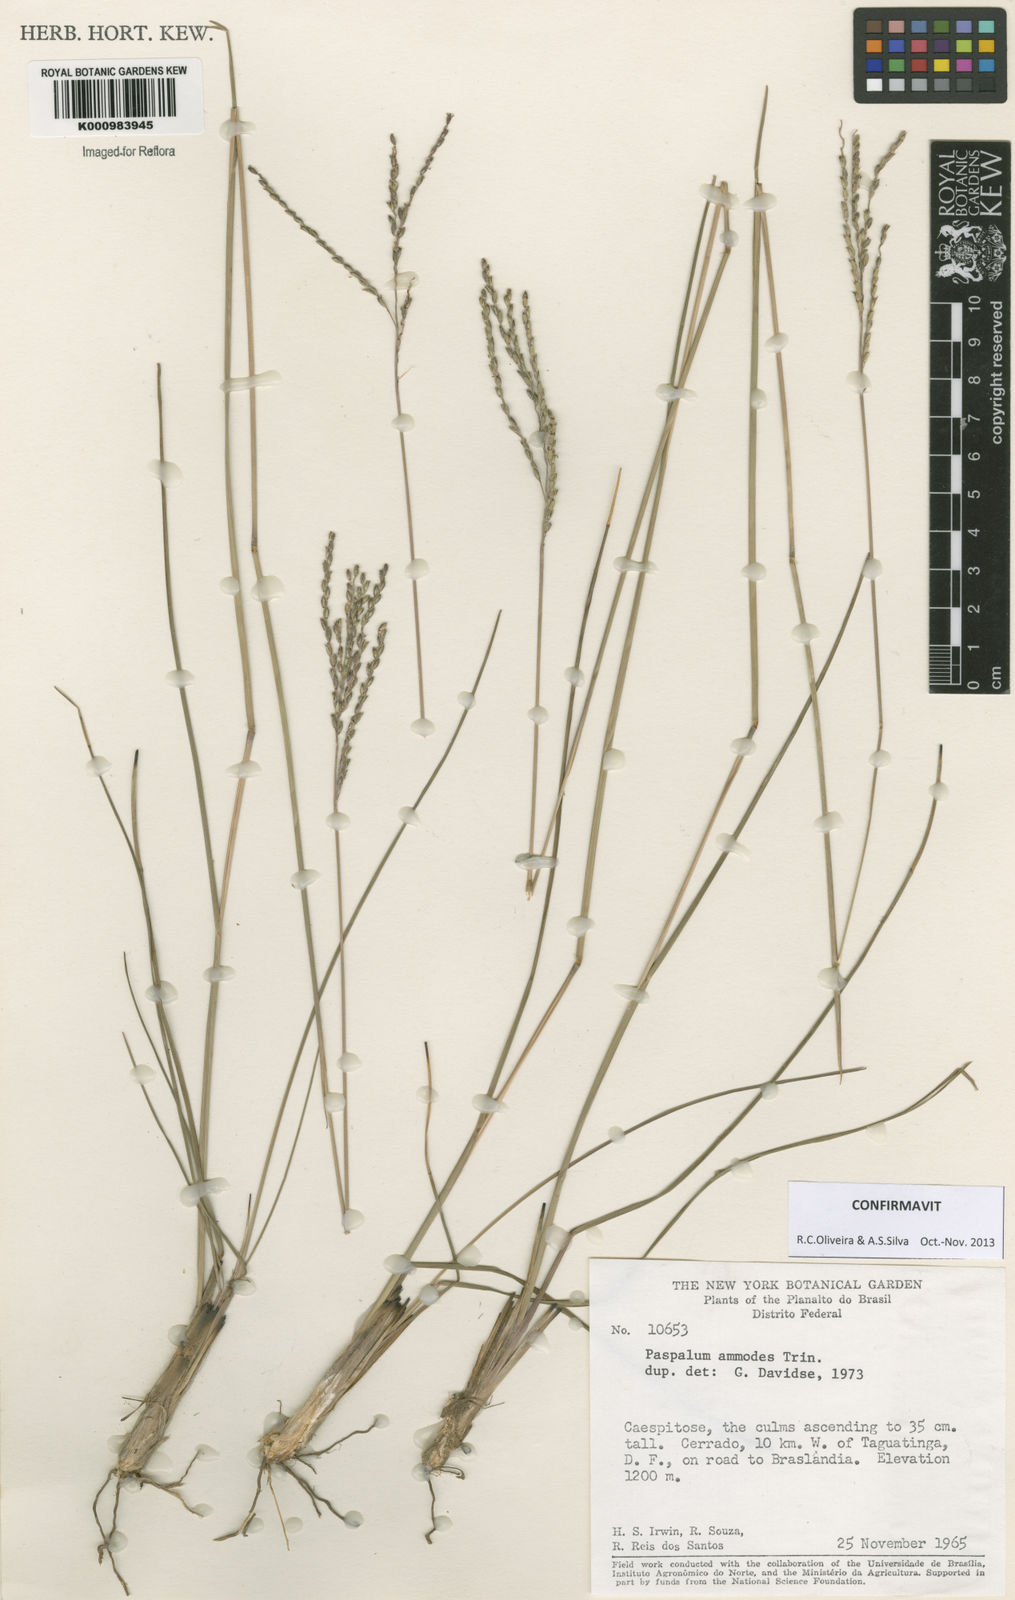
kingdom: Plantae
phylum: Tracheophyta
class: Liliopsida
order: Poales
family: Poaceae
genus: Paspalum
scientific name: Paspalum ammodes
